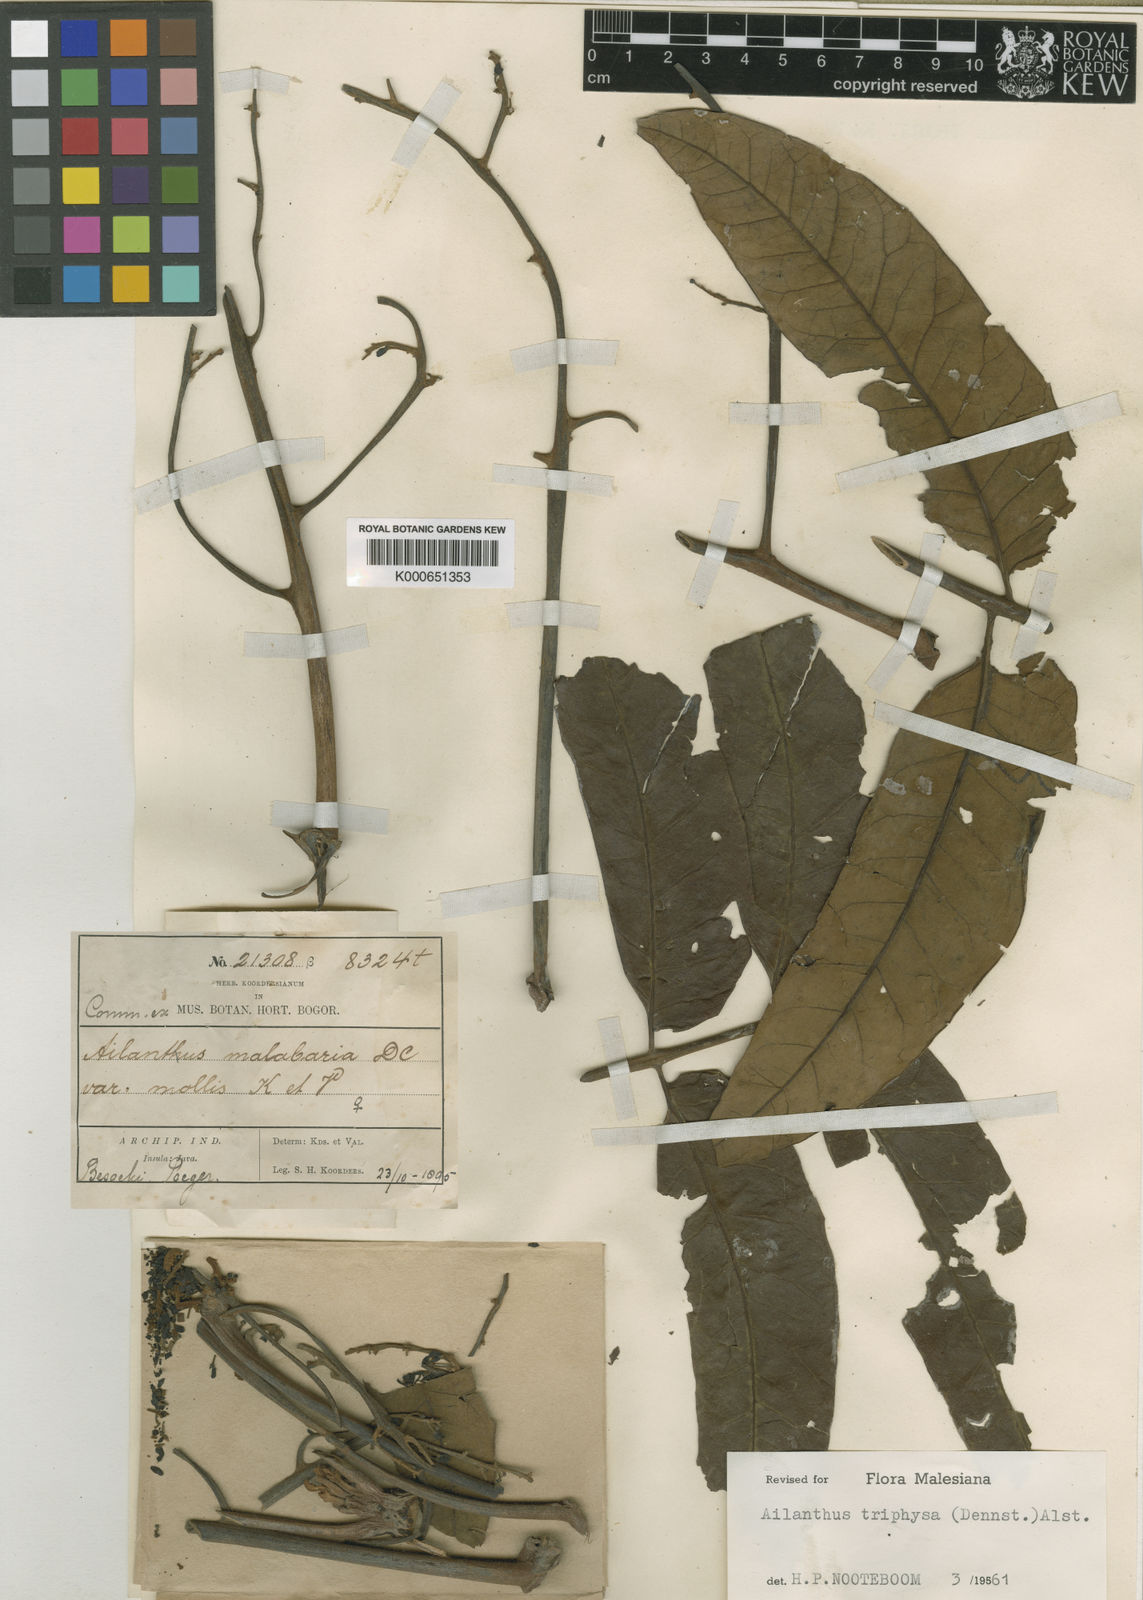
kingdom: Plantae
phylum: Tracheophyta
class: Magnoliopsida
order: Sapindales
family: Simaroubaceae
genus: Ailanthus
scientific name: Ailanthus triphysa
